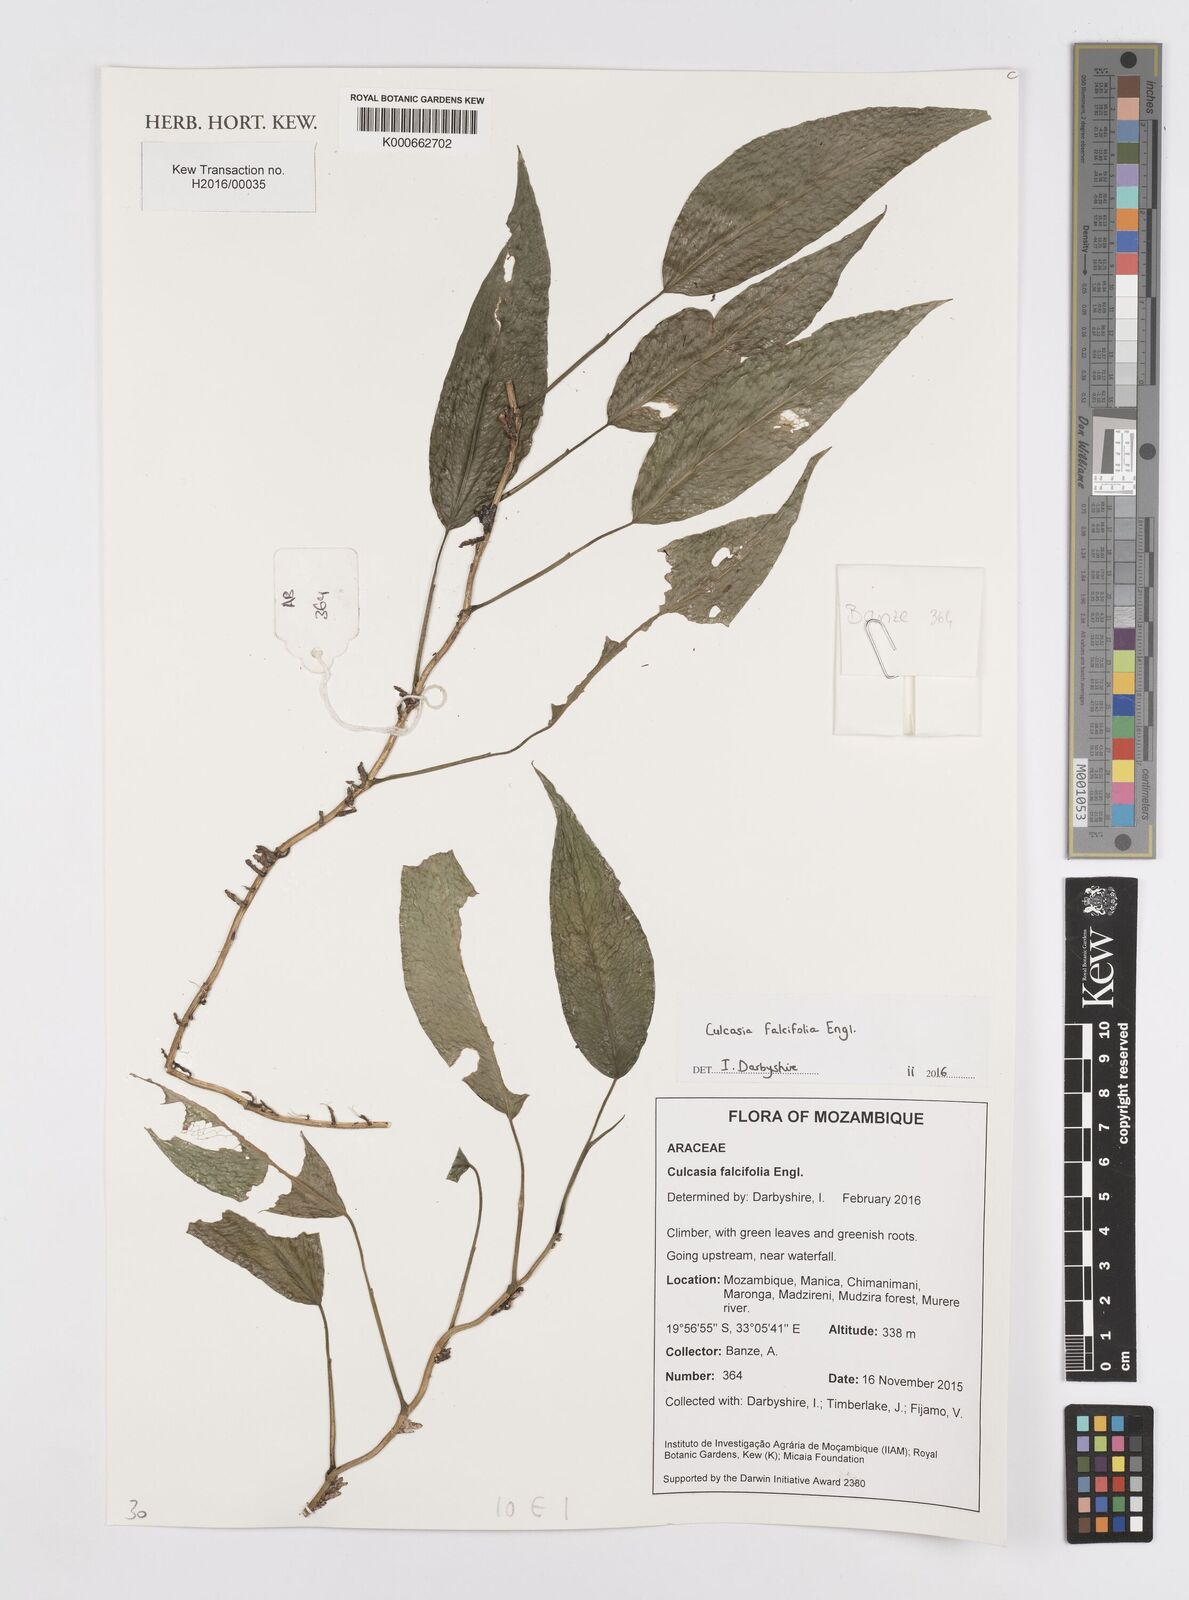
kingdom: Plantae
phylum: Tracheophyta
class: Liliopsida
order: Alismatales
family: Araceae
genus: Culcasia
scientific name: Culcasia falcifolia
